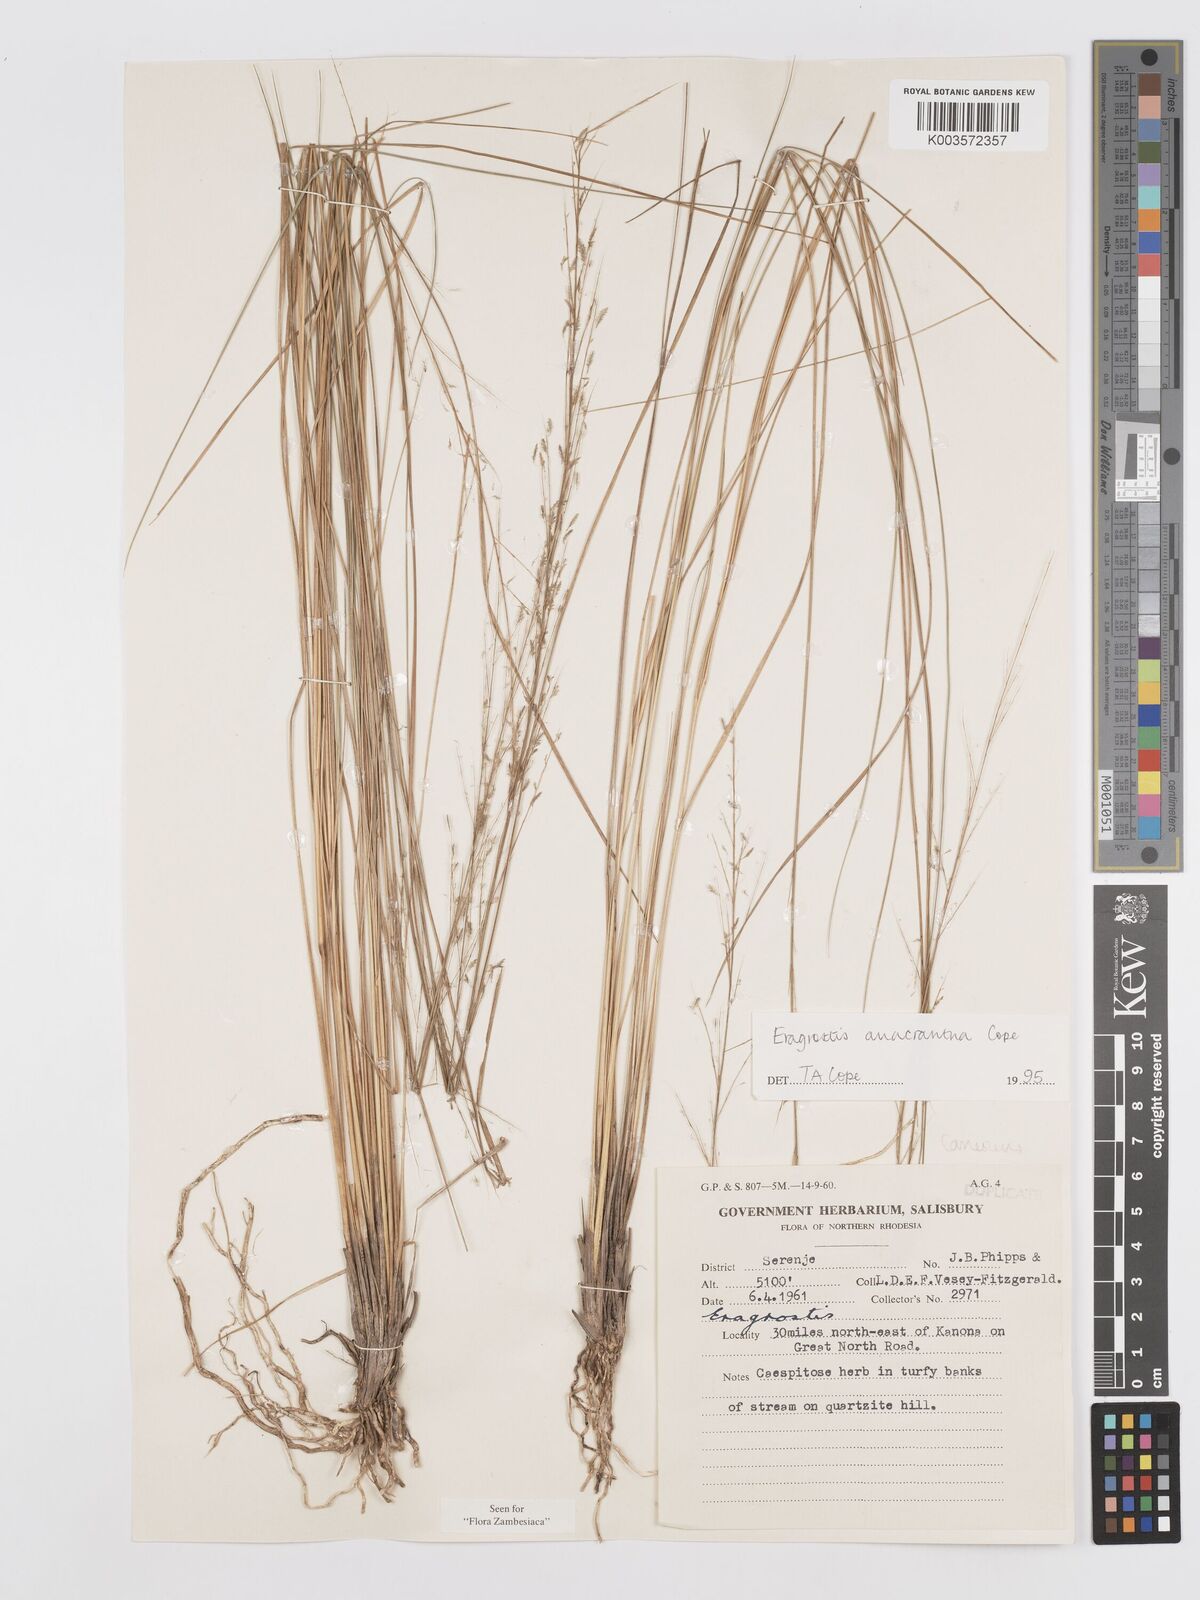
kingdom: Plantae
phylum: Tracheophyta
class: Liliopsida
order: Poales
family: Poaceae
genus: Eragrostis
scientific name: Eragrostis anacrantha
